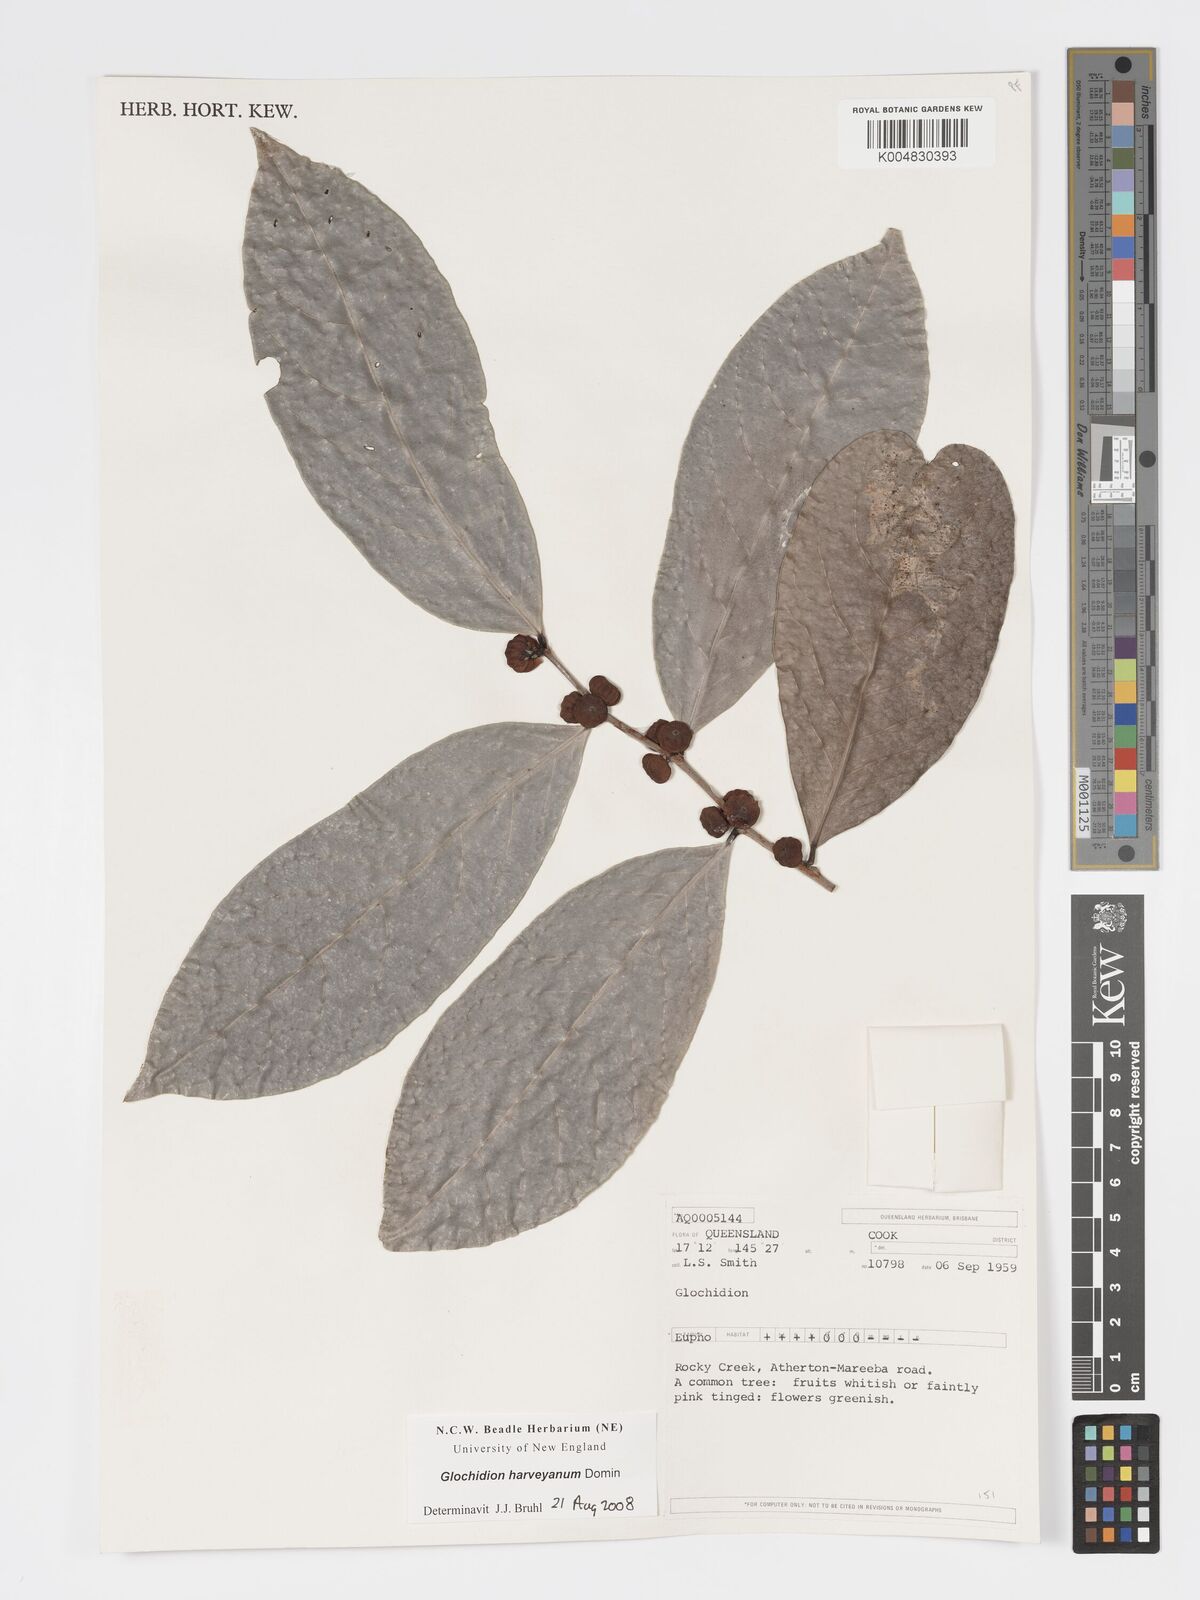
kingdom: Plantae
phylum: Tracheophyta
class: Magnoliopsida
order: Malpighiales
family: Phyllanthaceae
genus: Glochidion
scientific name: Glochidion harveyanum
